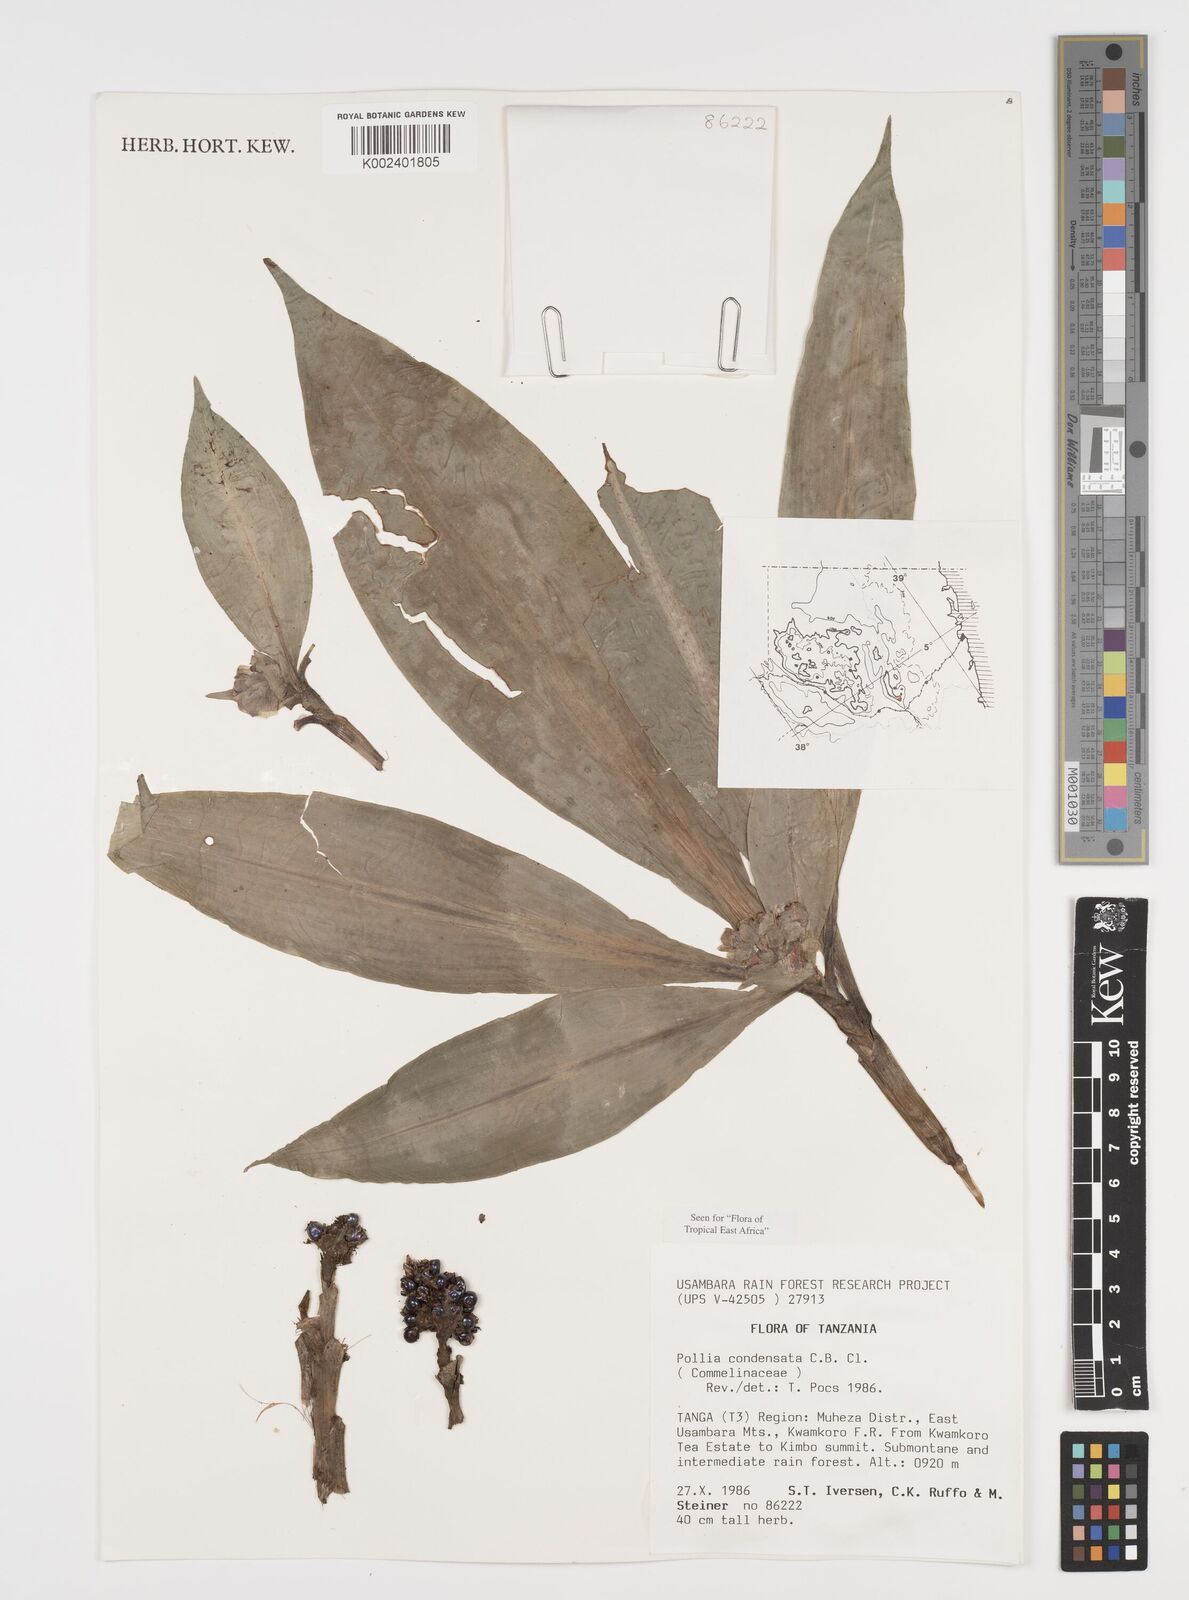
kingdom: Plantae
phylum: Tracheophyta
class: Liliopsida
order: Commelinales
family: Commelinaceae
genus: Pollia
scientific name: Pollia condensata
